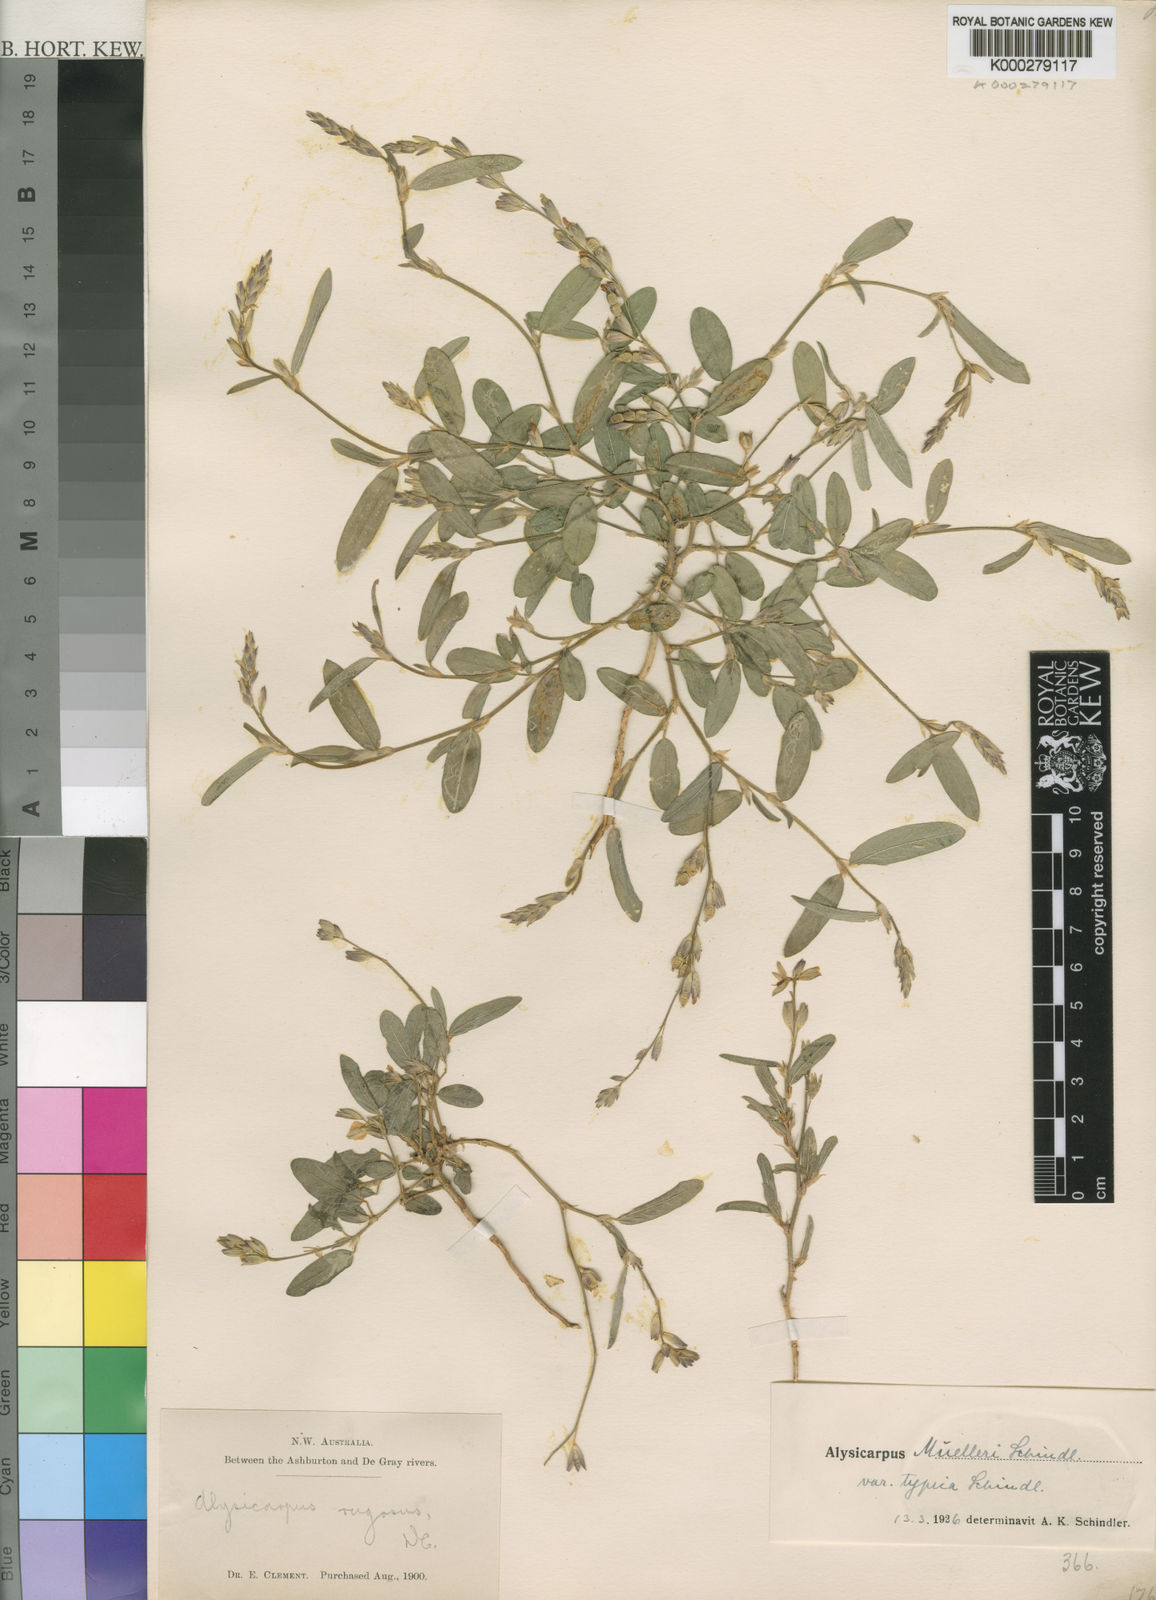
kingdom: Plantae
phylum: Tracheophyta
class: Magnoliopsida
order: Fabales
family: Fabaceae
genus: Alysicarpus
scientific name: Alysicarpus muelleri
